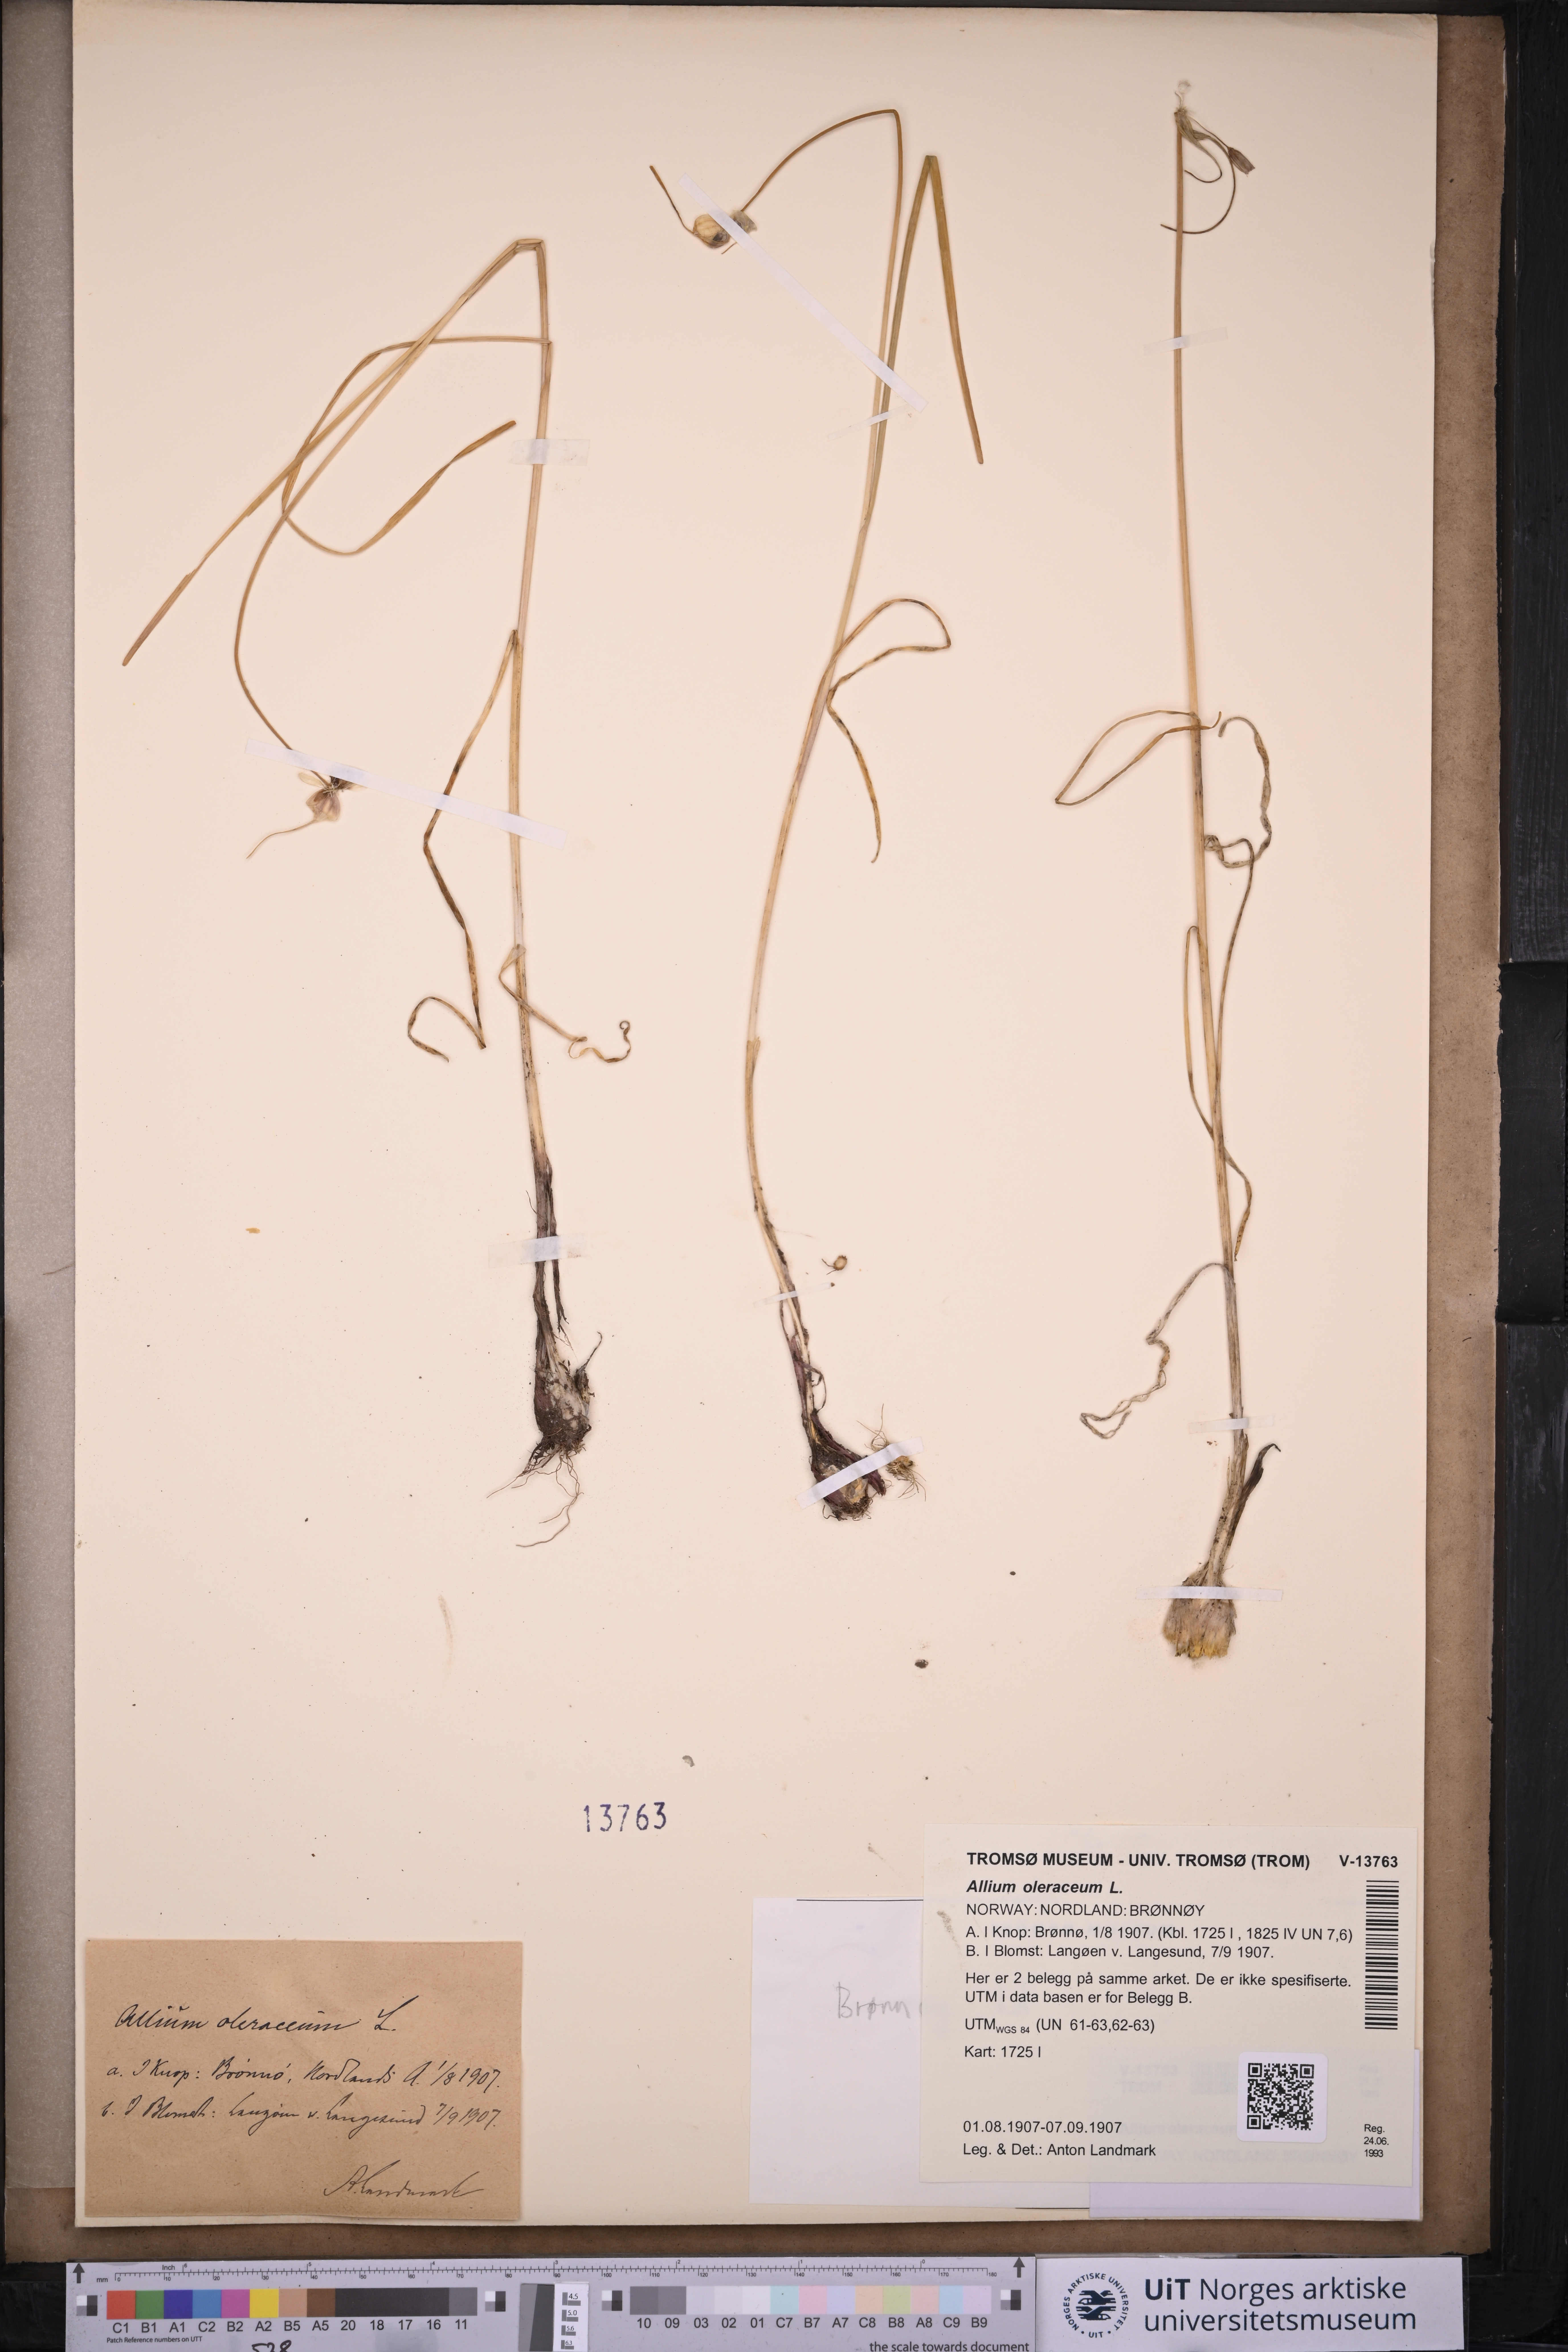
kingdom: Plantae
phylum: Tracheophyta
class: Liliopsida
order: Asparagales
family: Amaryllidaceae
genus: Allium
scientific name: Allium oleraceum
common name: Field garlic
